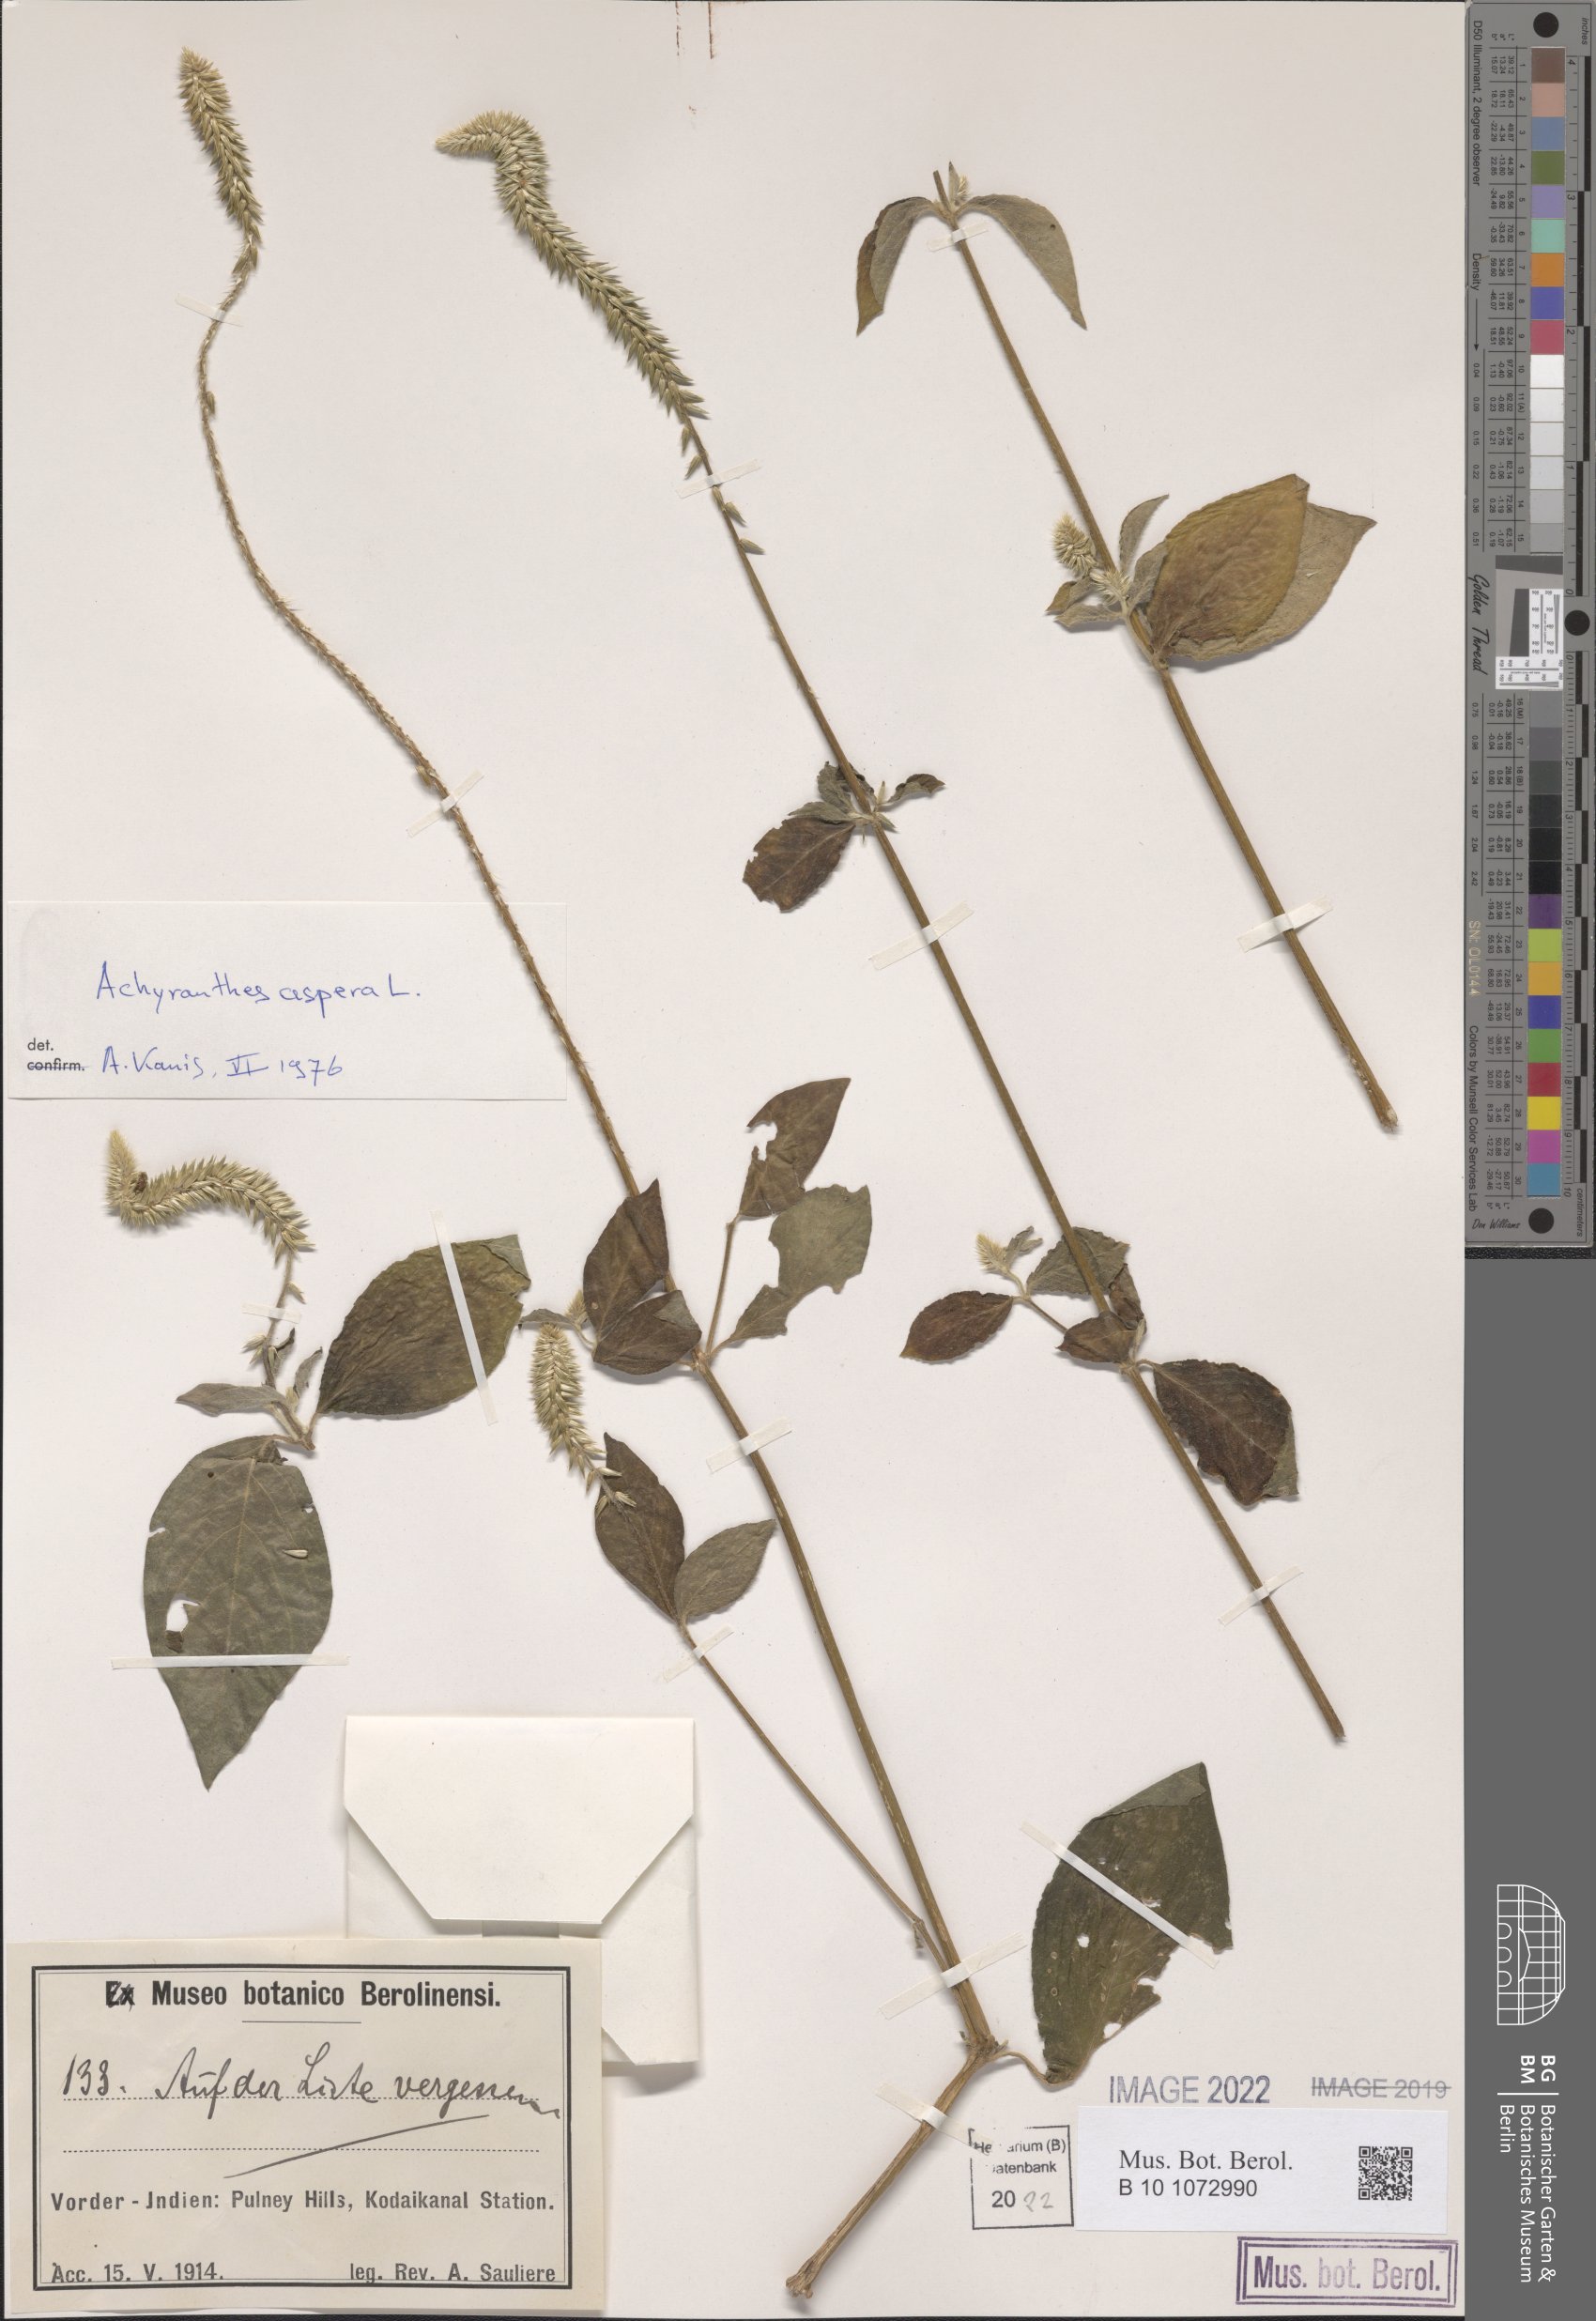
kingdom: Plantae
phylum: Tracheophyta
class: Magnoliopsida
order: Caryophyllales
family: Amaranthaceae
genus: Achyranthes
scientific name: Achyranthes aspera
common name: Devil's horsewhip
